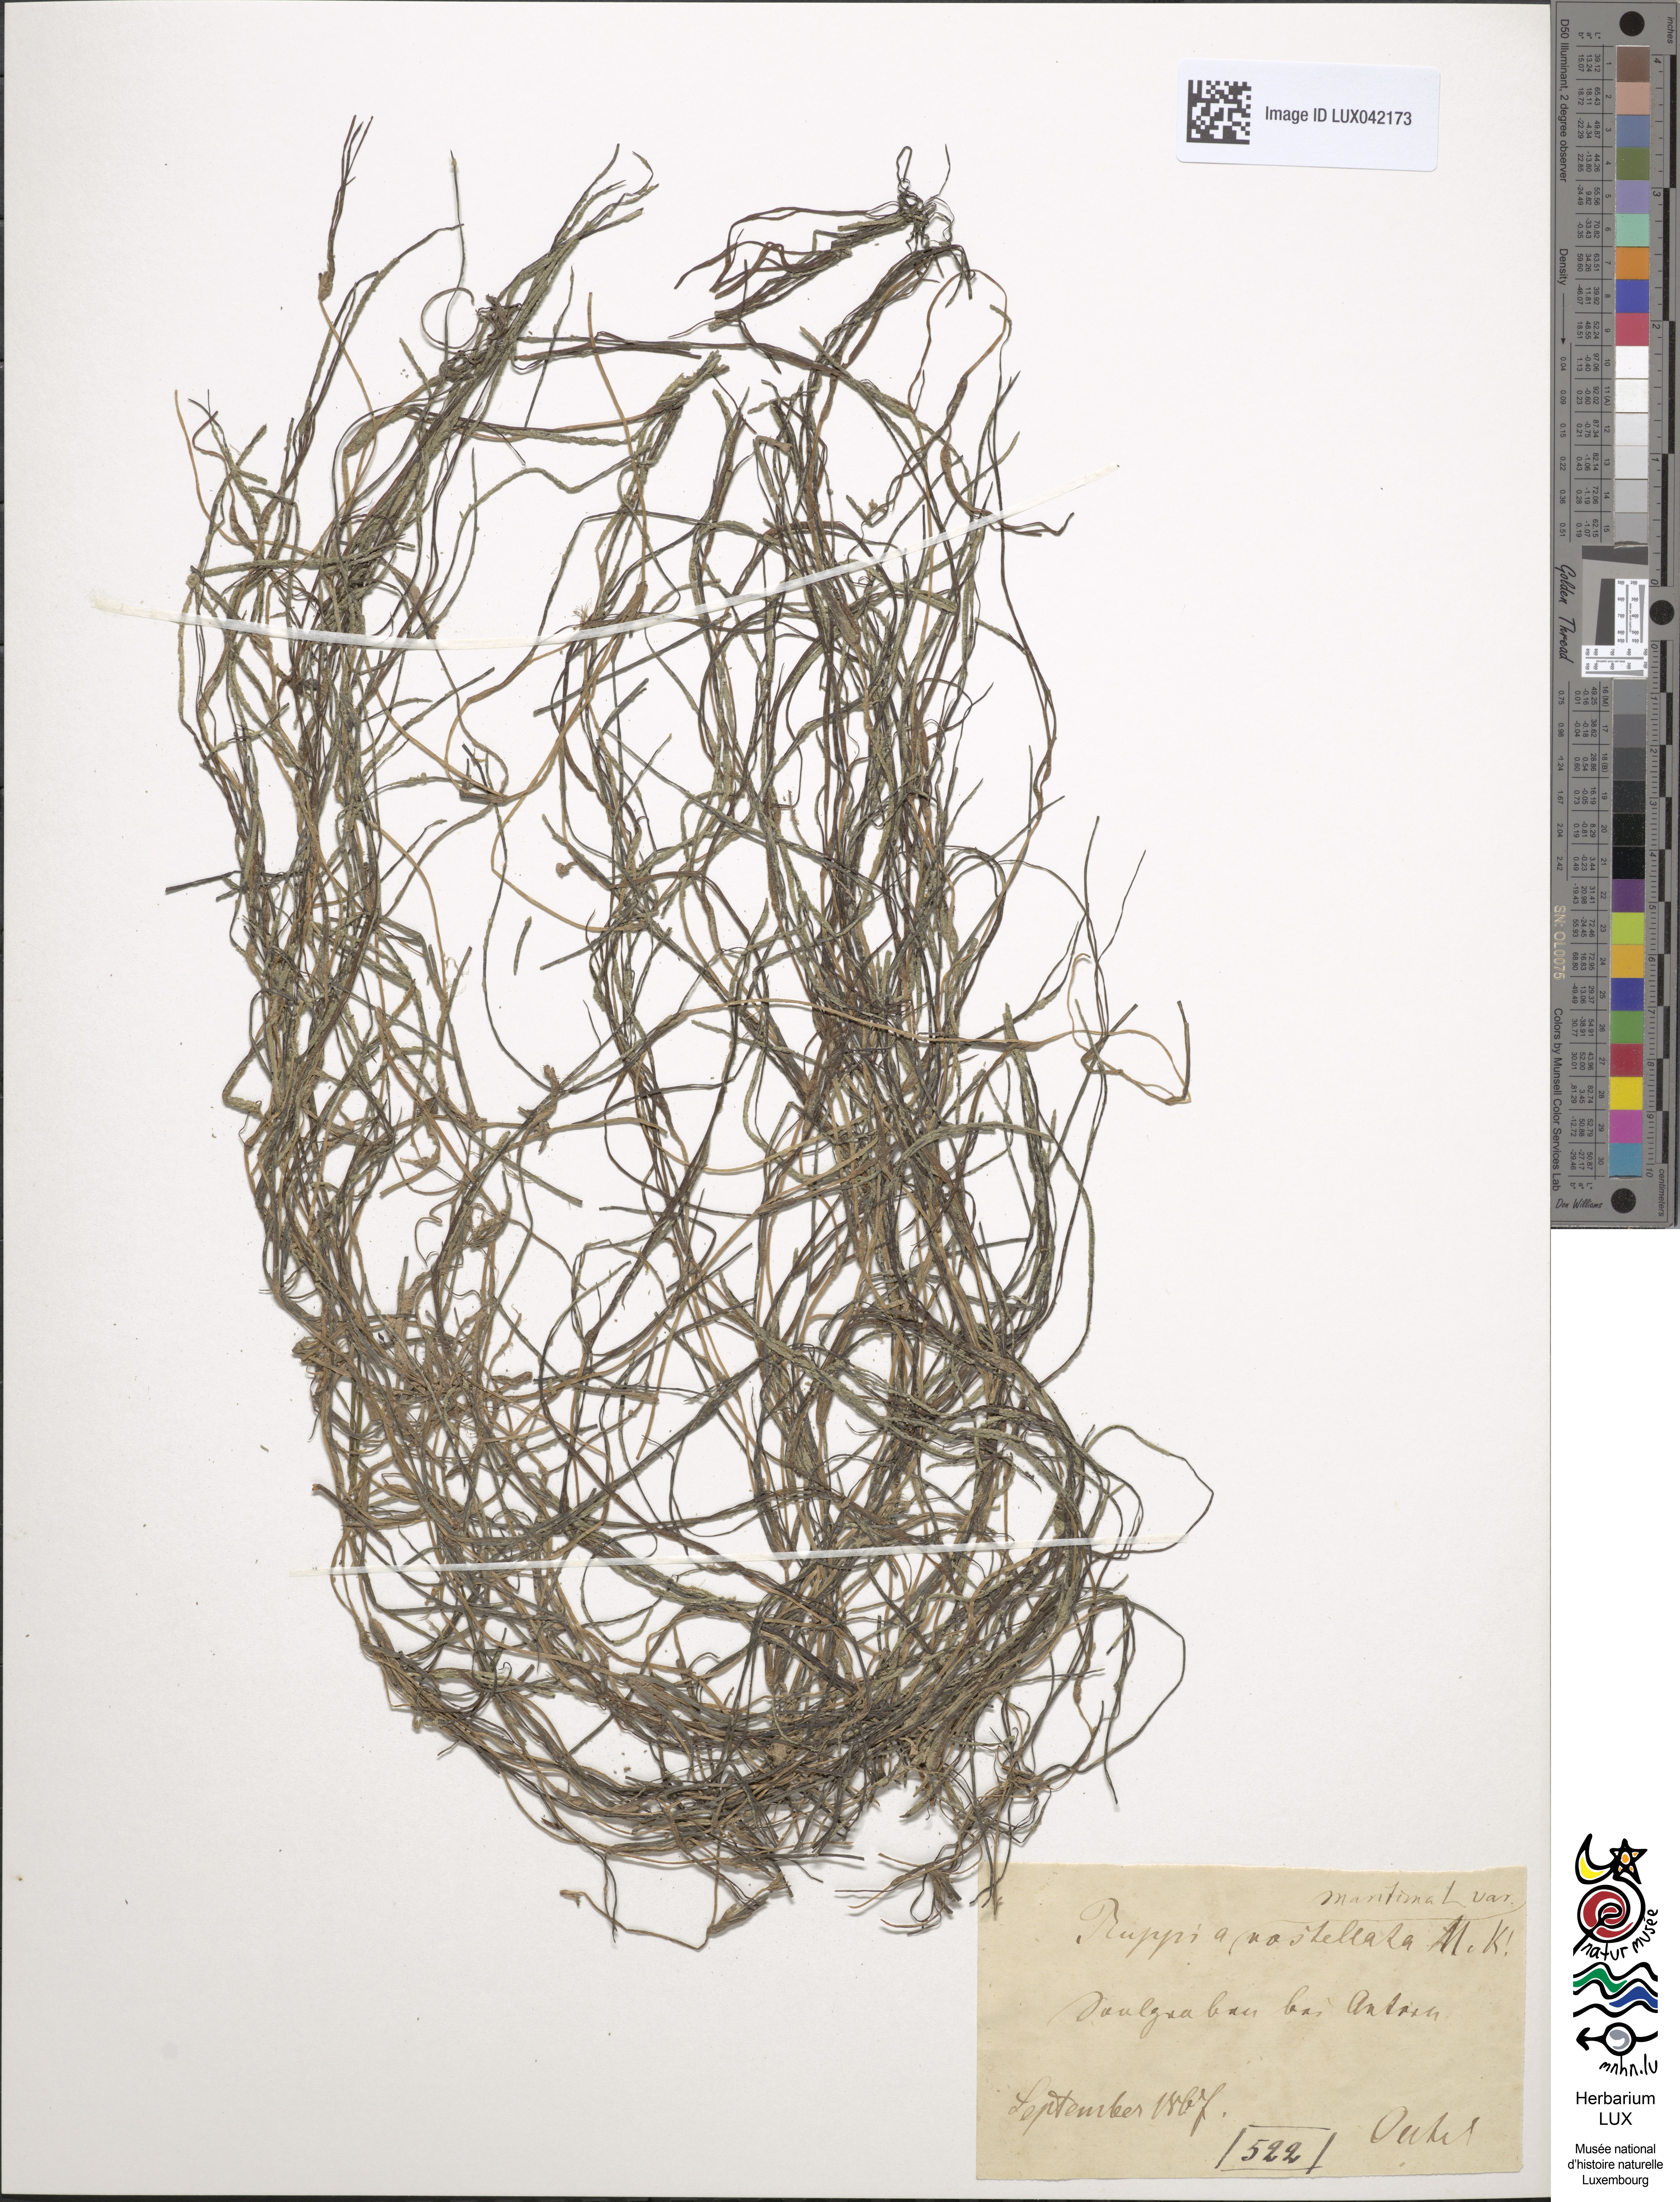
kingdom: Plantae
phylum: Tracheophyta
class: Liliopsida
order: Alismatales
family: Ruppiaceae
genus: Ruppia
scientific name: Ruppia maritima
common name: Beaked tasselweed
